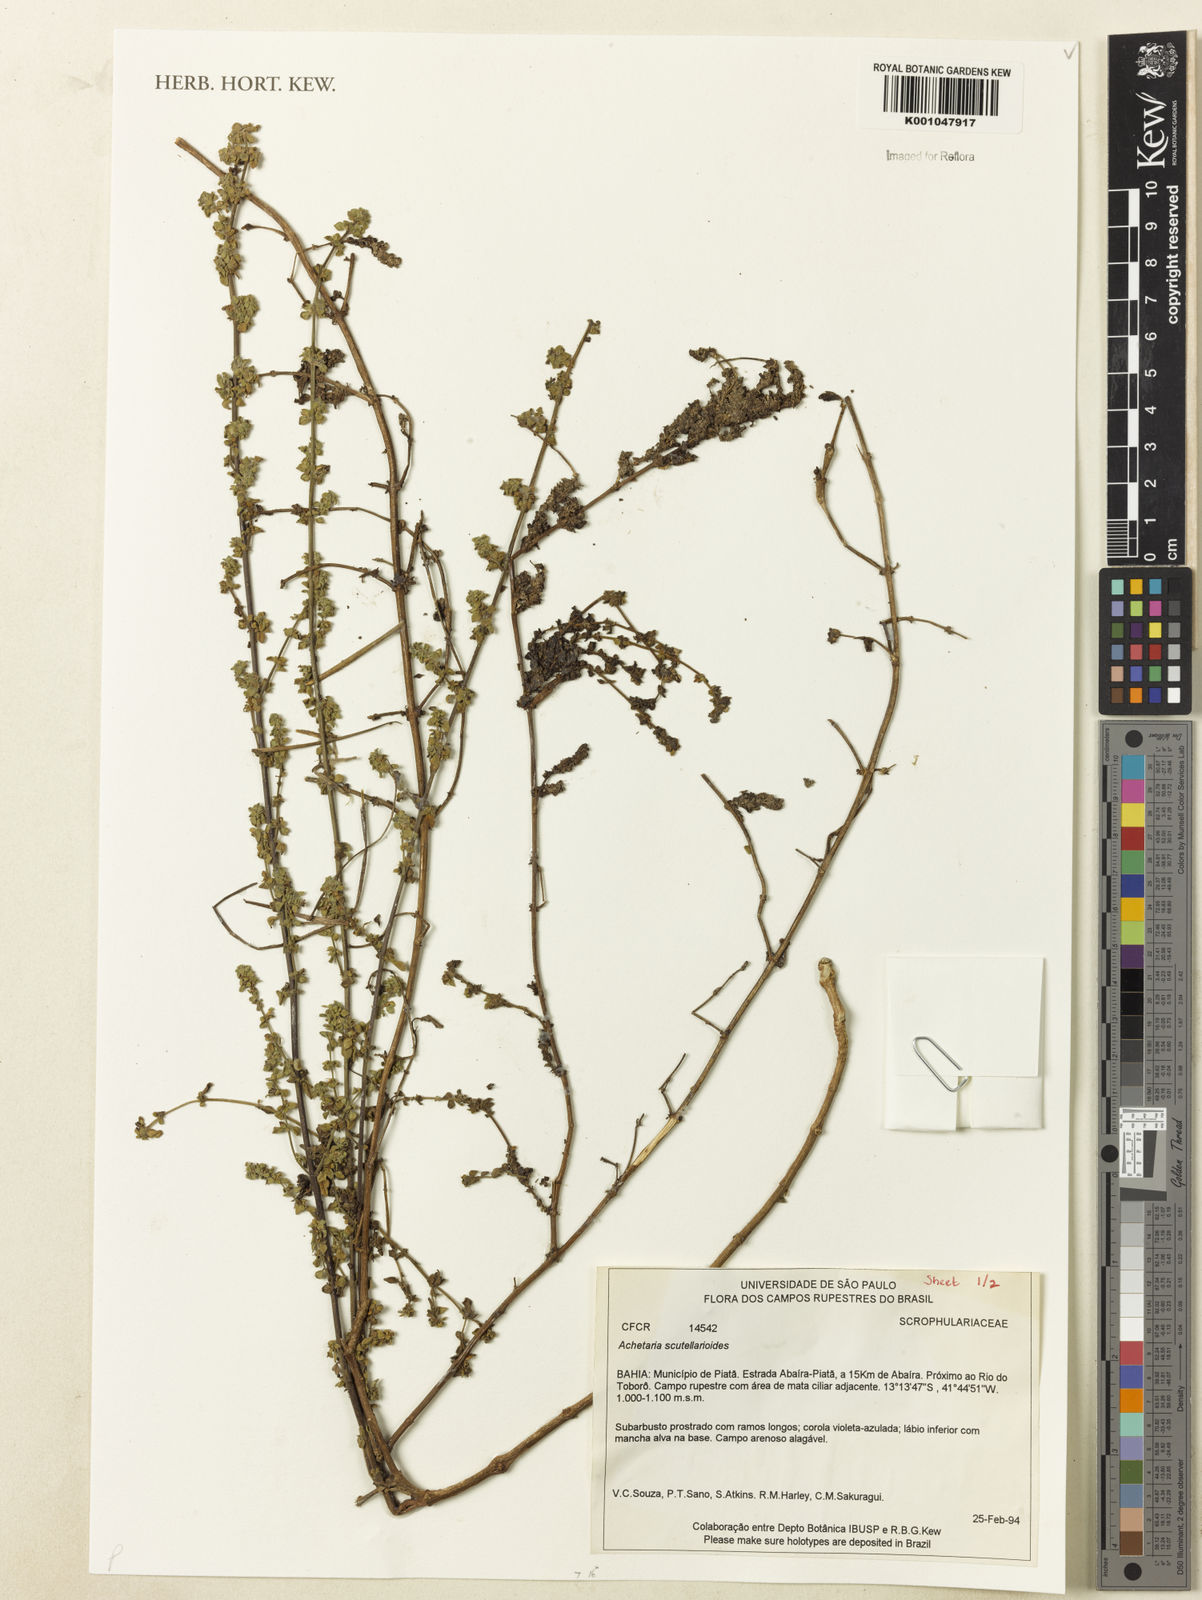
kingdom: Plantae
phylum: Tracheophyta
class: Magnoliopsida
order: Lamiales
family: Plantaginaceae
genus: Matourea
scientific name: Matourea scutellarioides
